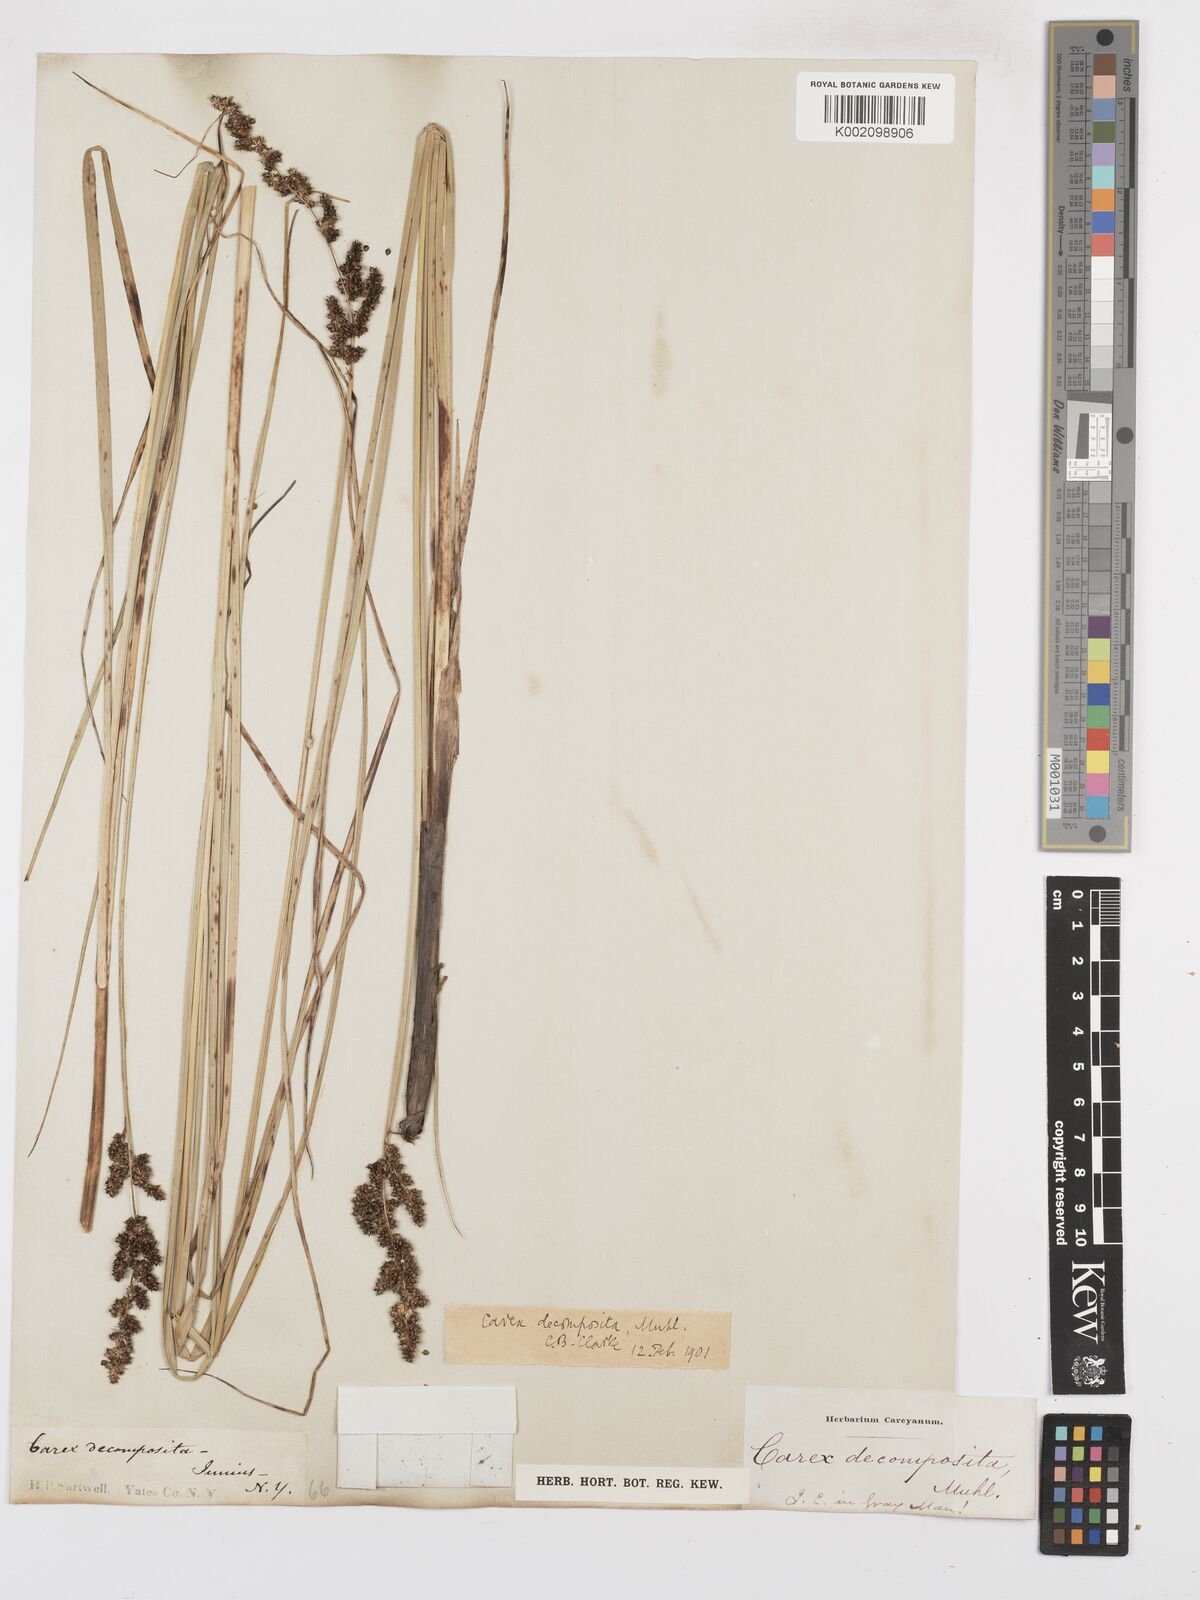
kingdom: Plantae
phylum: Tracheophyta
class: Liliopsida
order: Poales
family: Cyperaceae
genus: Carex
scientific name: Carex decomposita
